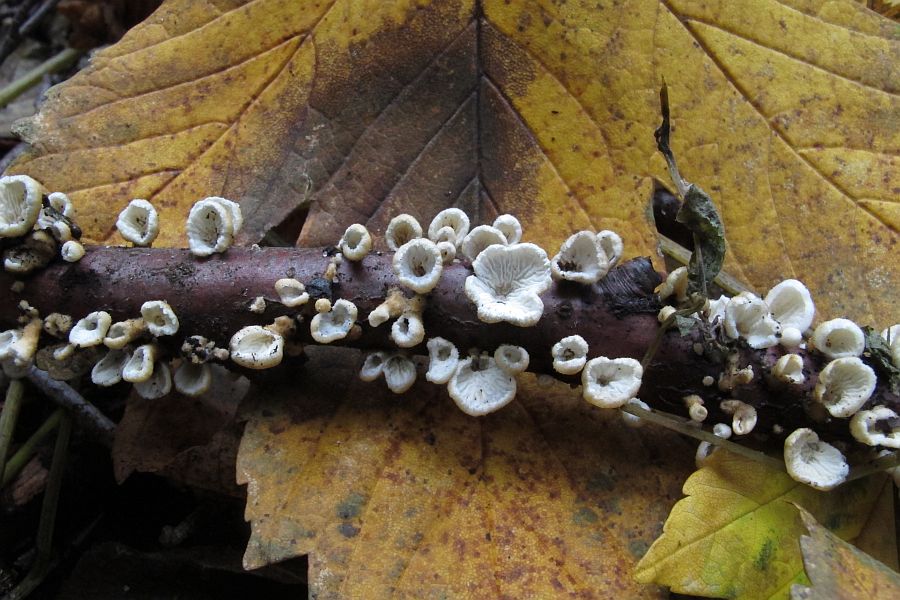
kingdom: Fungi
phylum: Basidiomycota
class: Agaricomycetes
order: Amylocorticiales
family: Amylocorticiaceae
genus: Plicaturopsis
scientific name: Plicaturopsis crispa
